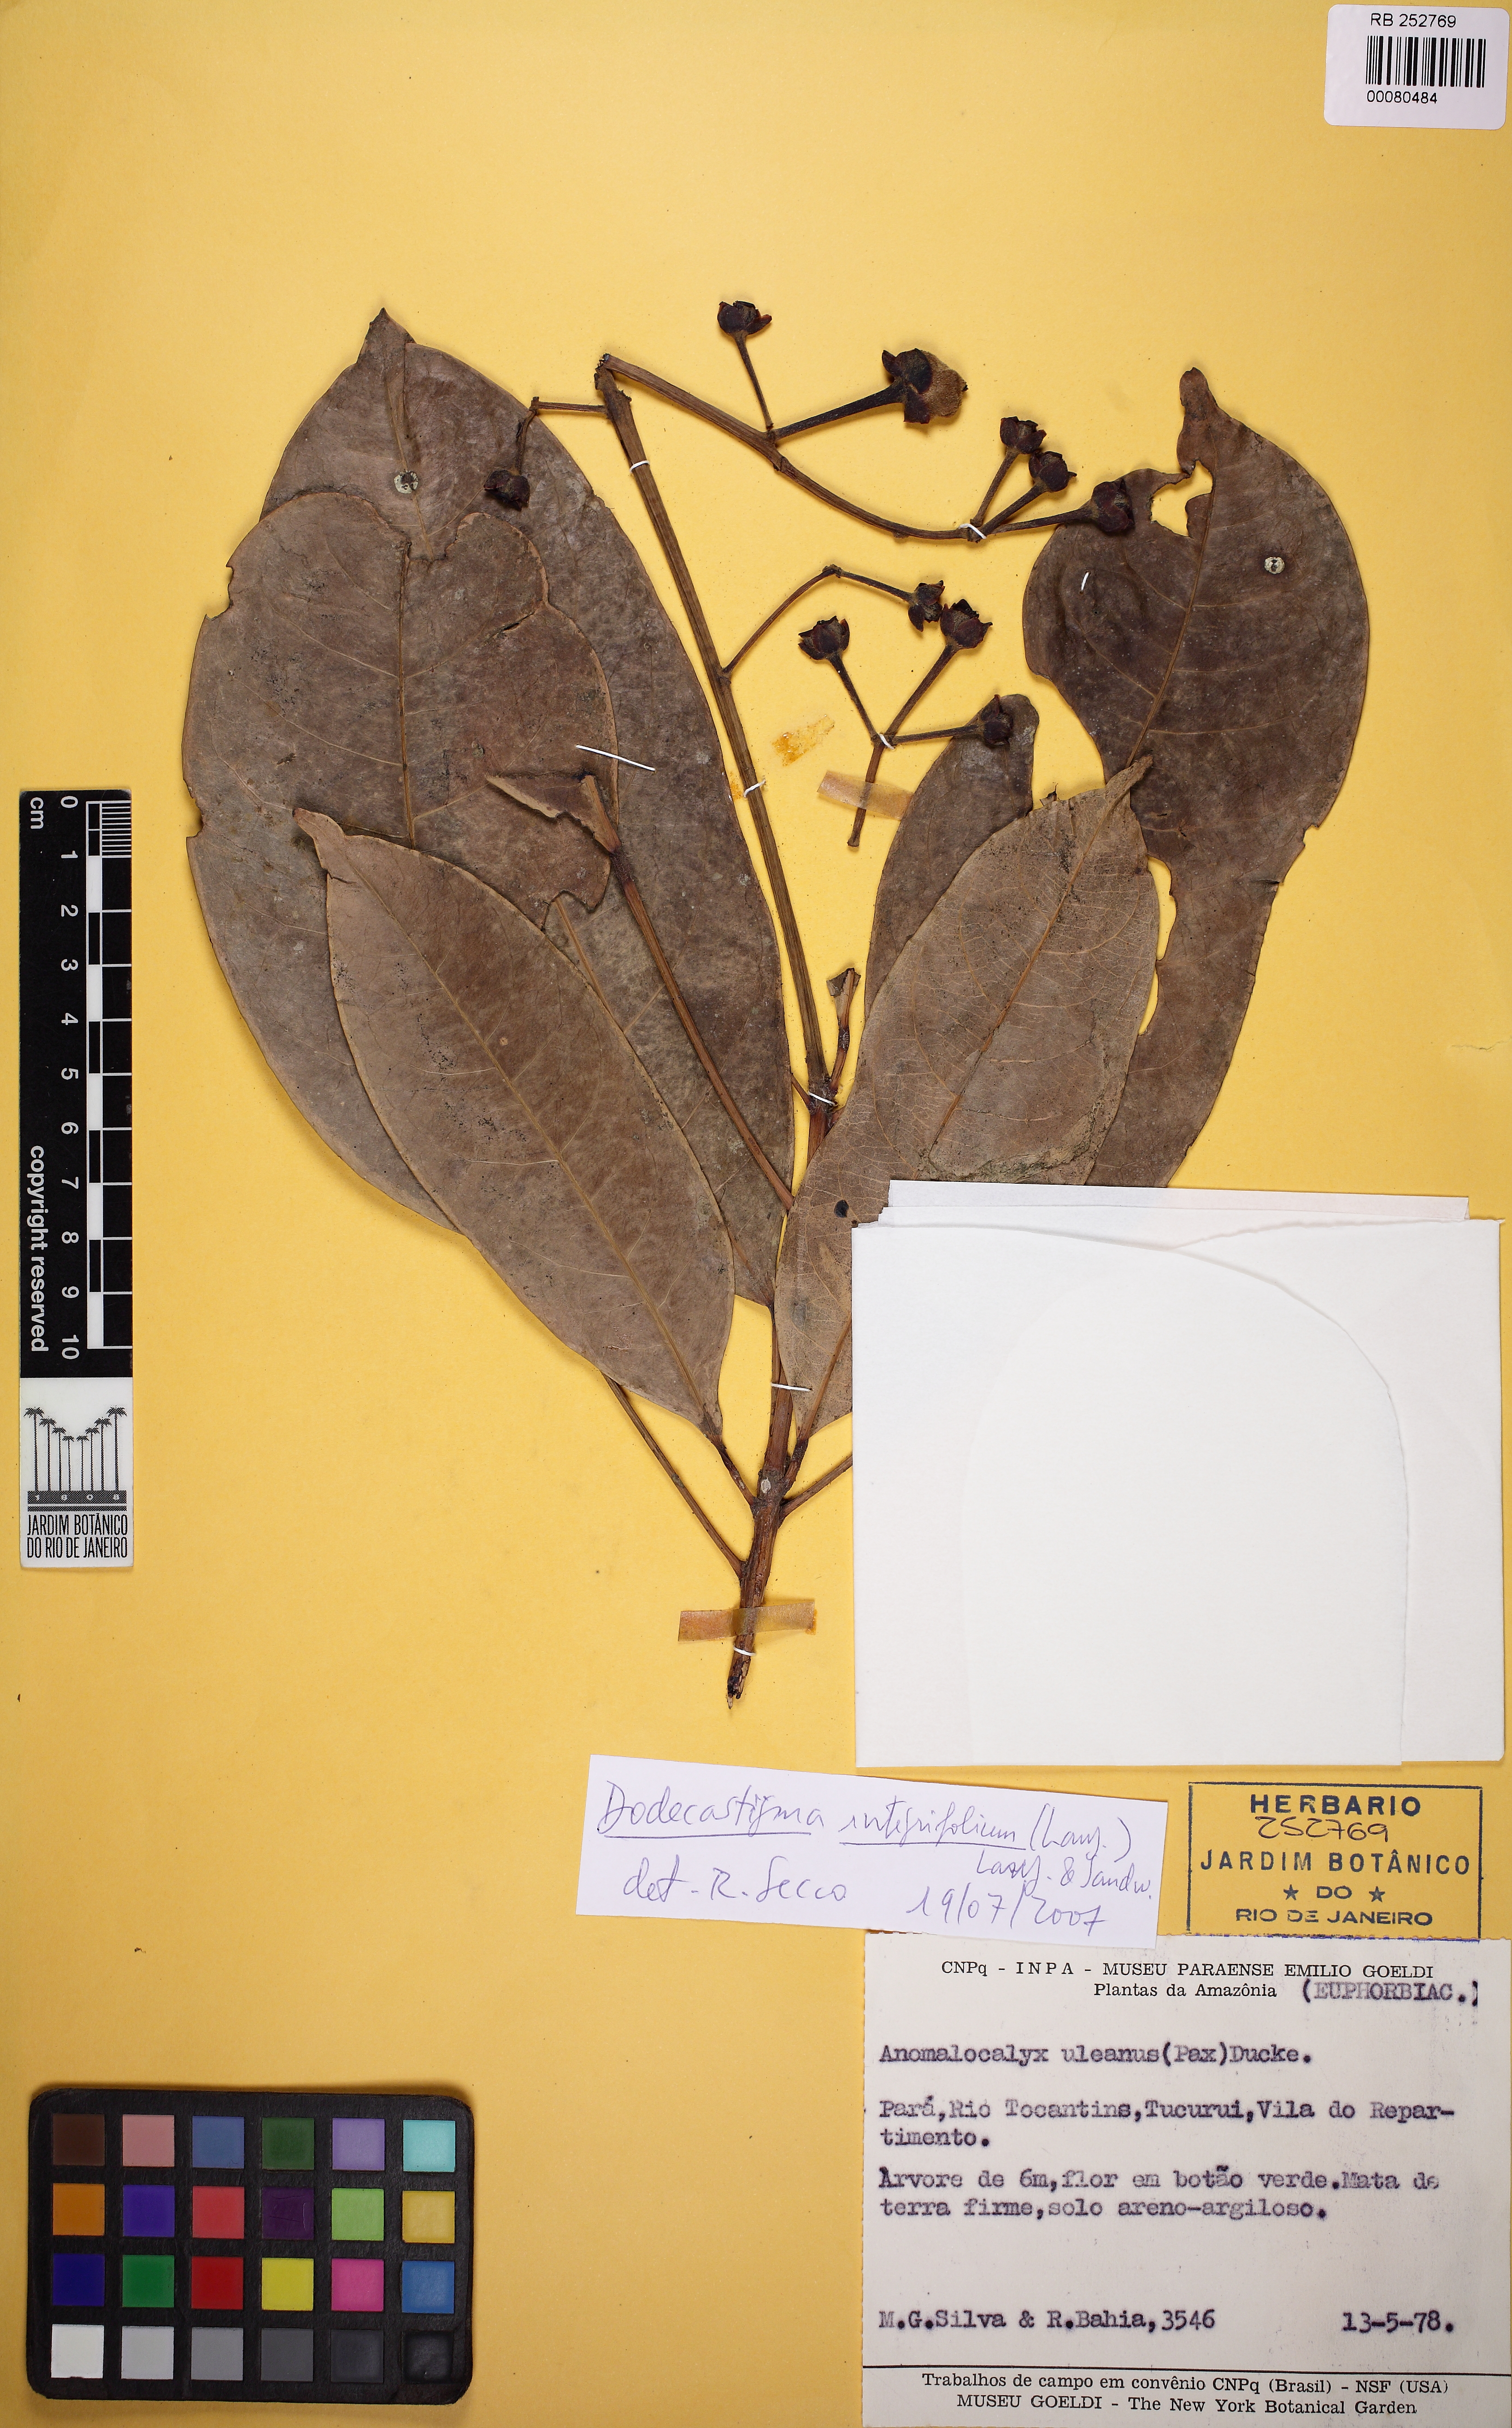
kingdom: Plantae
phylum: Tracheophyta
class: Magnoliopsida
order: Malpighiales
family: Euphorbiaceae
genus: Dodecastigma
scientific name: Dodecastigma integrifolium
